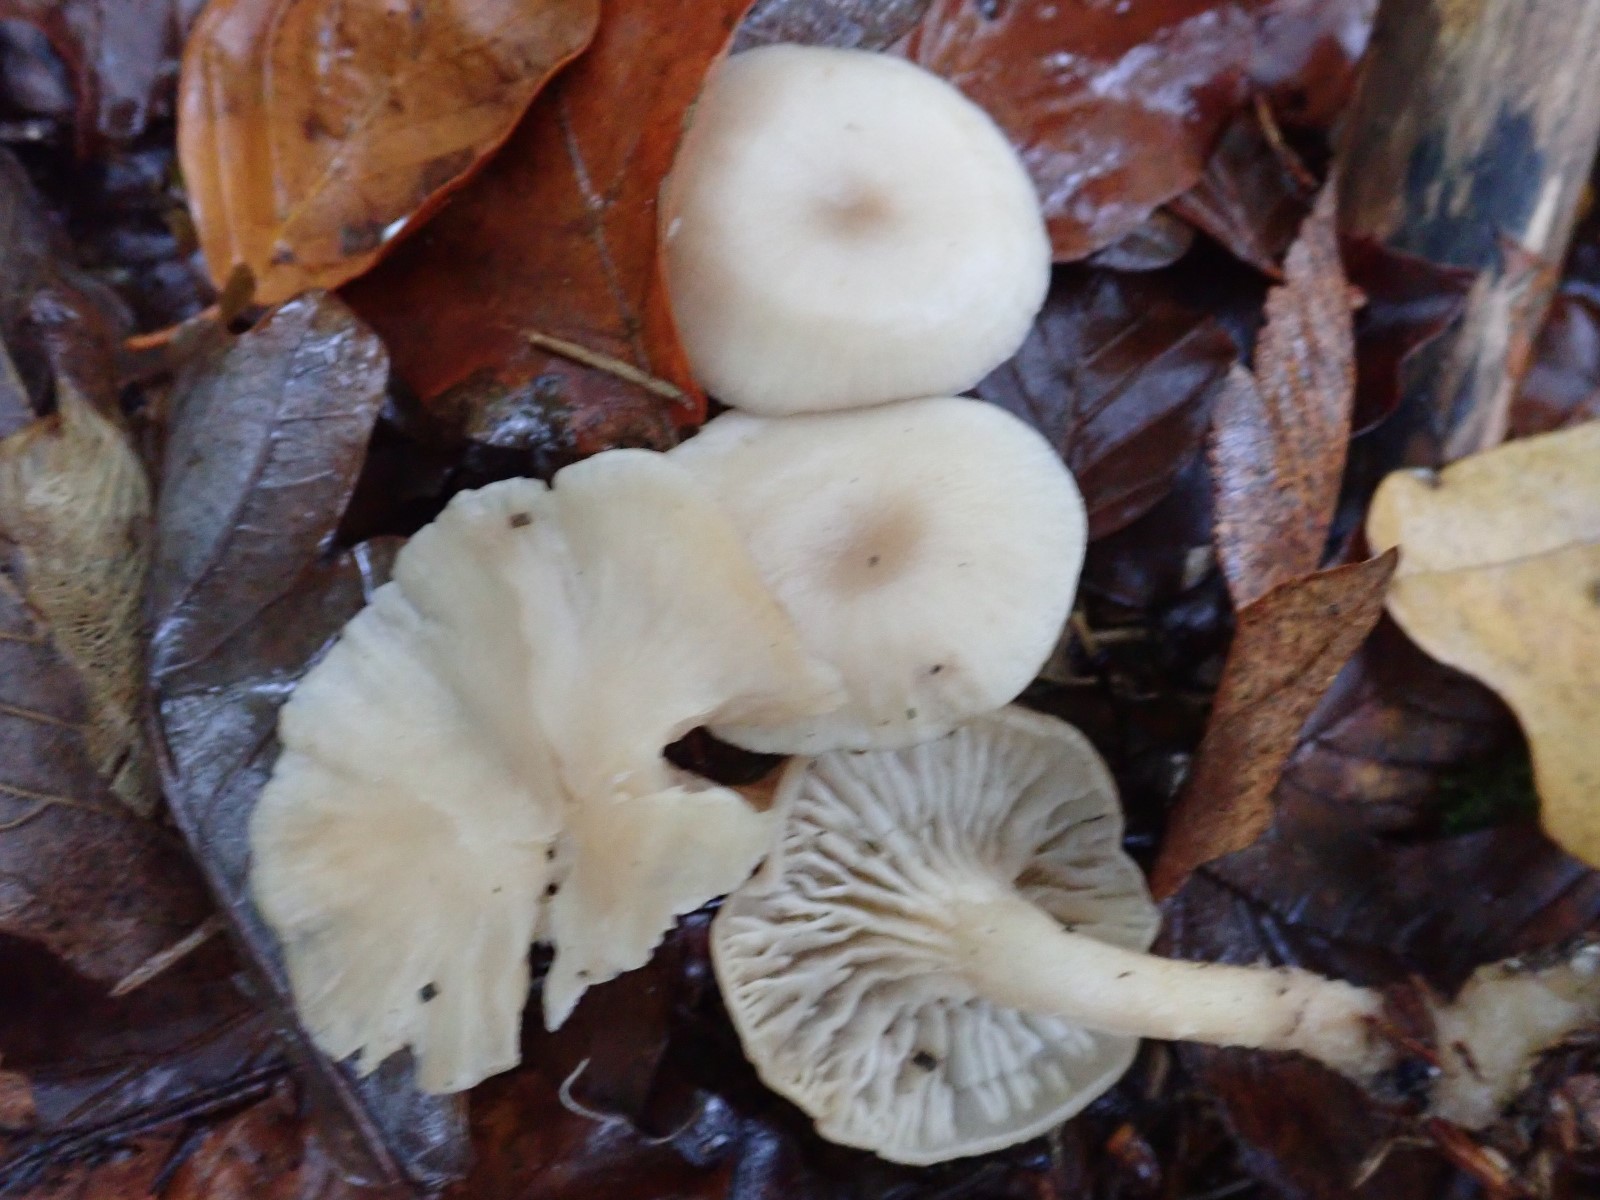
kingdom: Fungi
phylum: Basidiomycota
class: Agaricomycetes
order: Agaricales
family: Tricholomataceae
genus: Clitocybe
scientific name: Clitocybe
